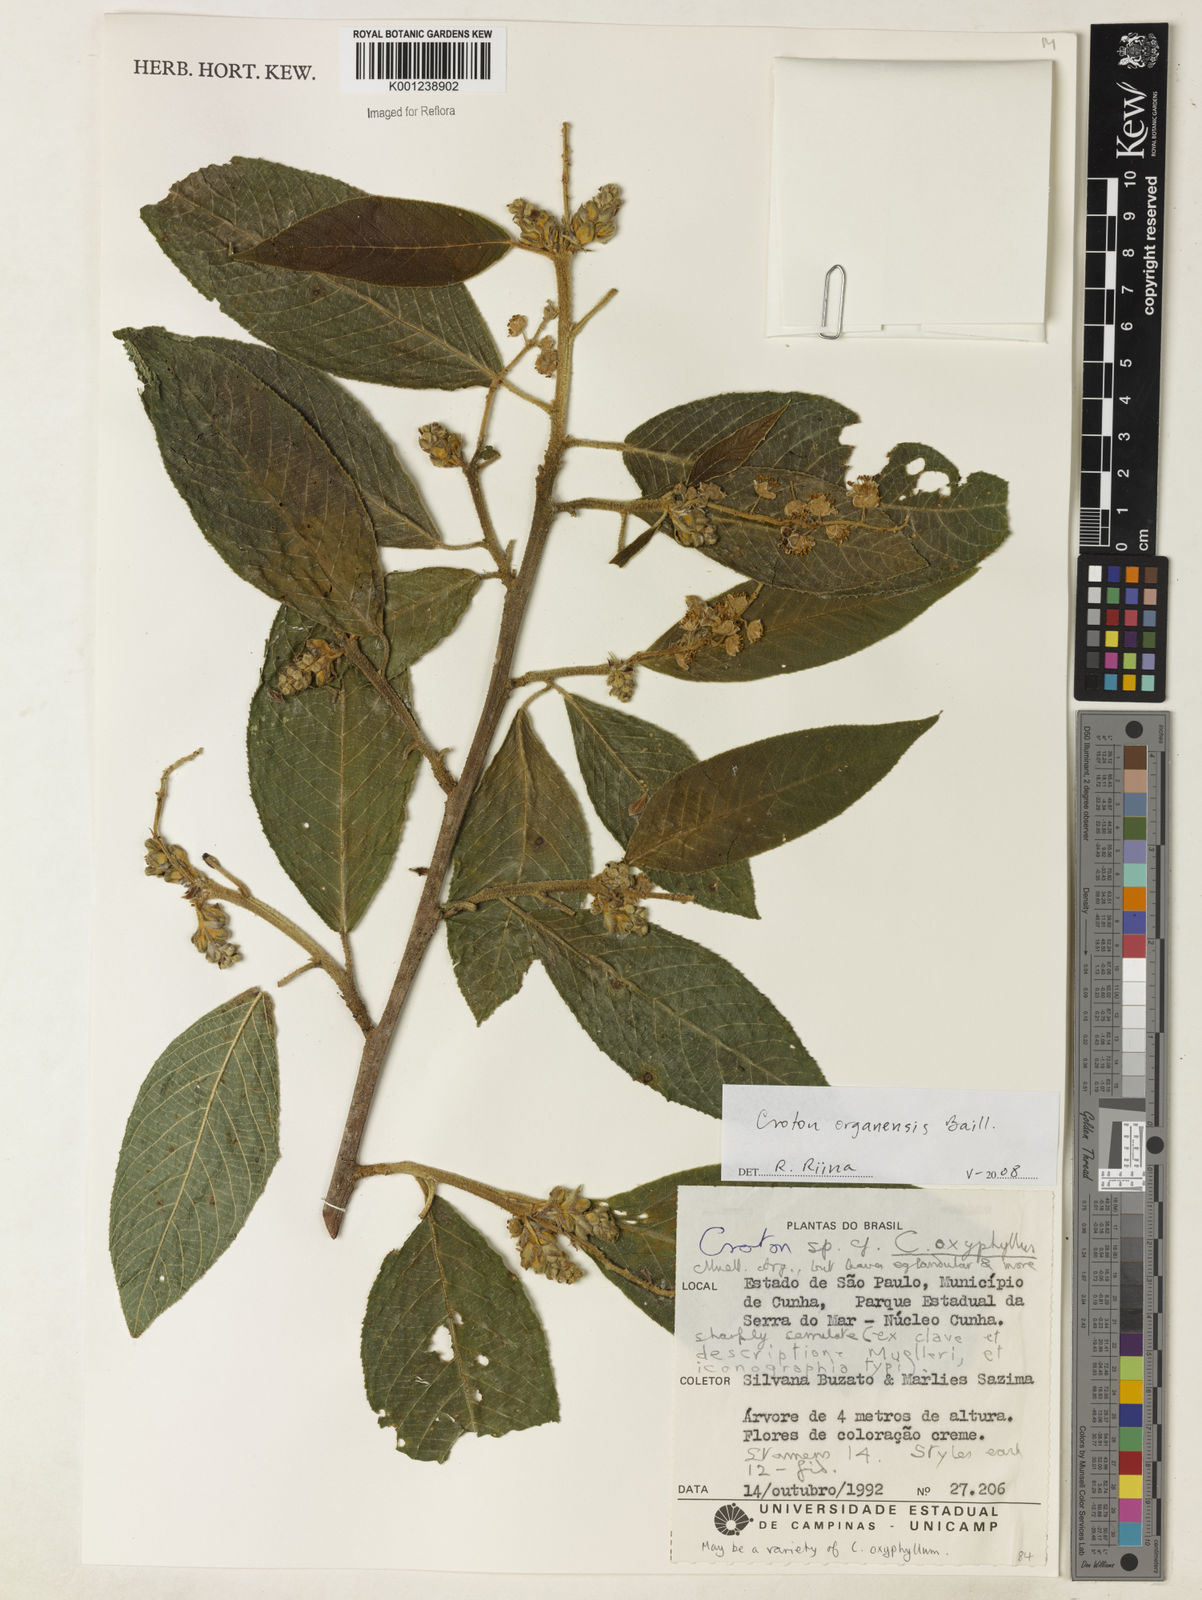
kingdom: Plantae
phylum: Tracheophyta
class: Magnoliopsida
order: Malpighiales
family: Euphorbiaceae
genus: Croton
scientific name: Croton organensis
